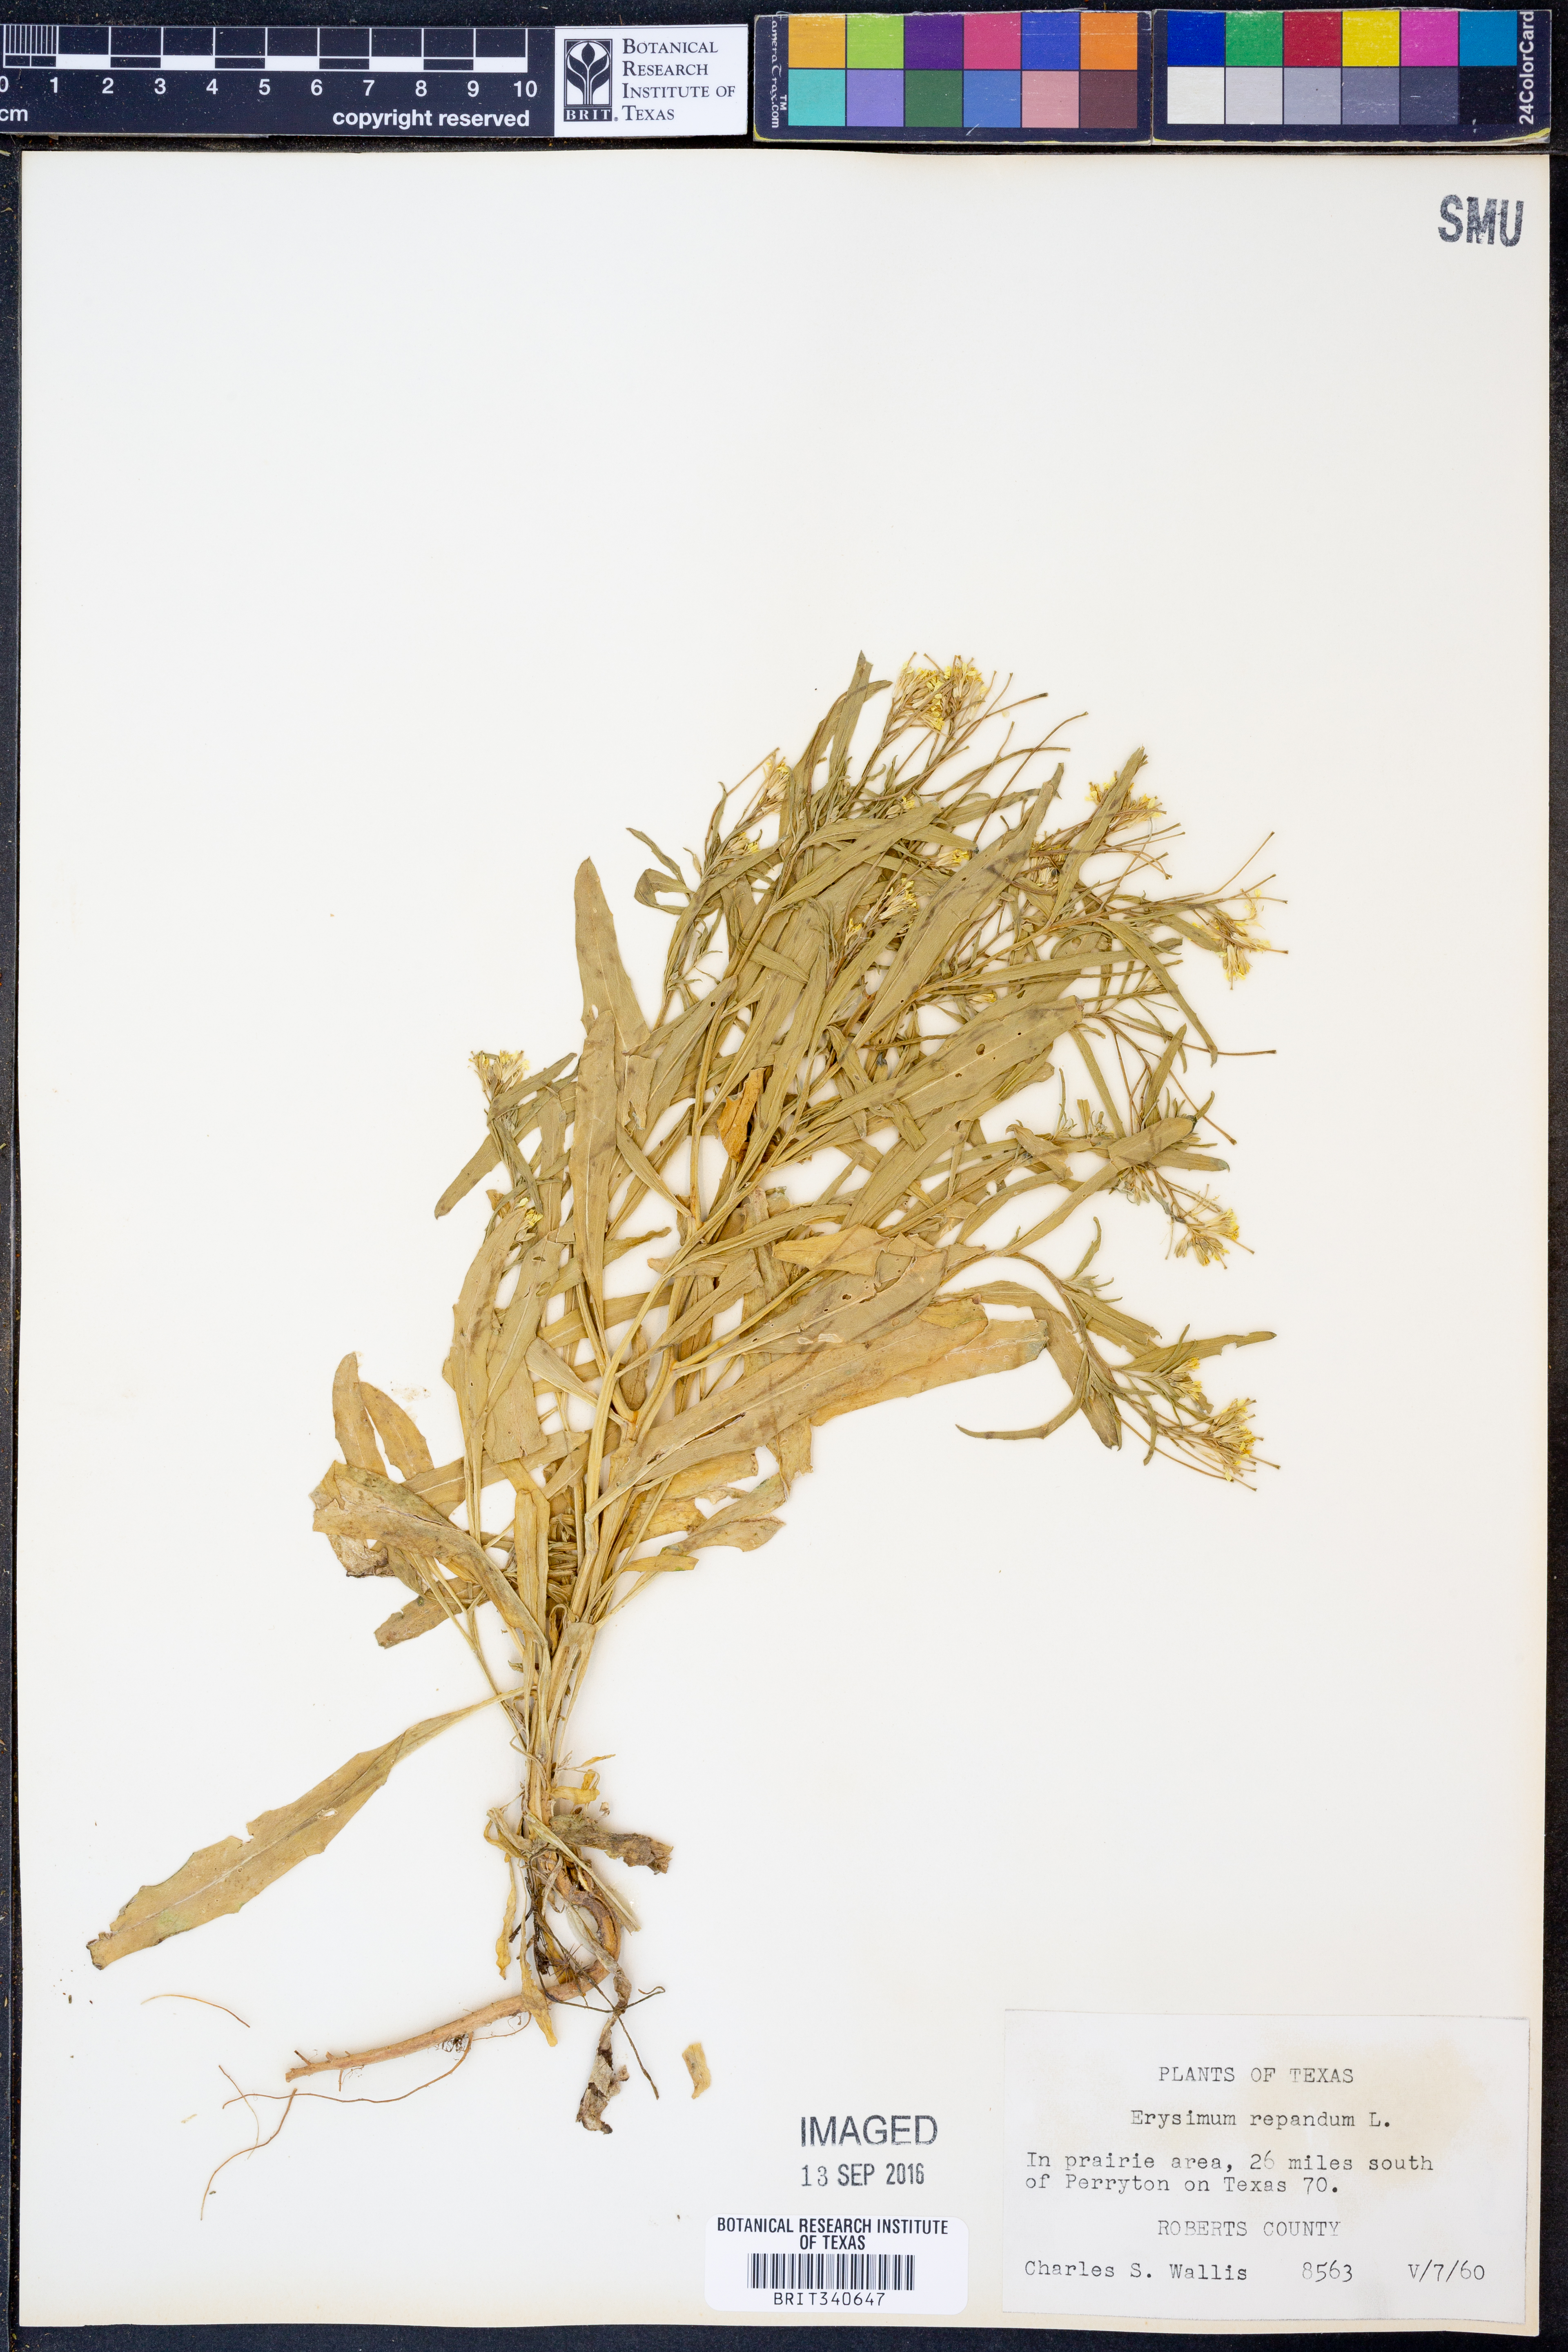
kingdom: Plantae
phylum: Tracheophyta
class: Magnoliopsida
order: Brassicales
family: Brassicaceae
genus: Erysimum
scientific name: Erysimum repandum
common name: Spreading wallflower
